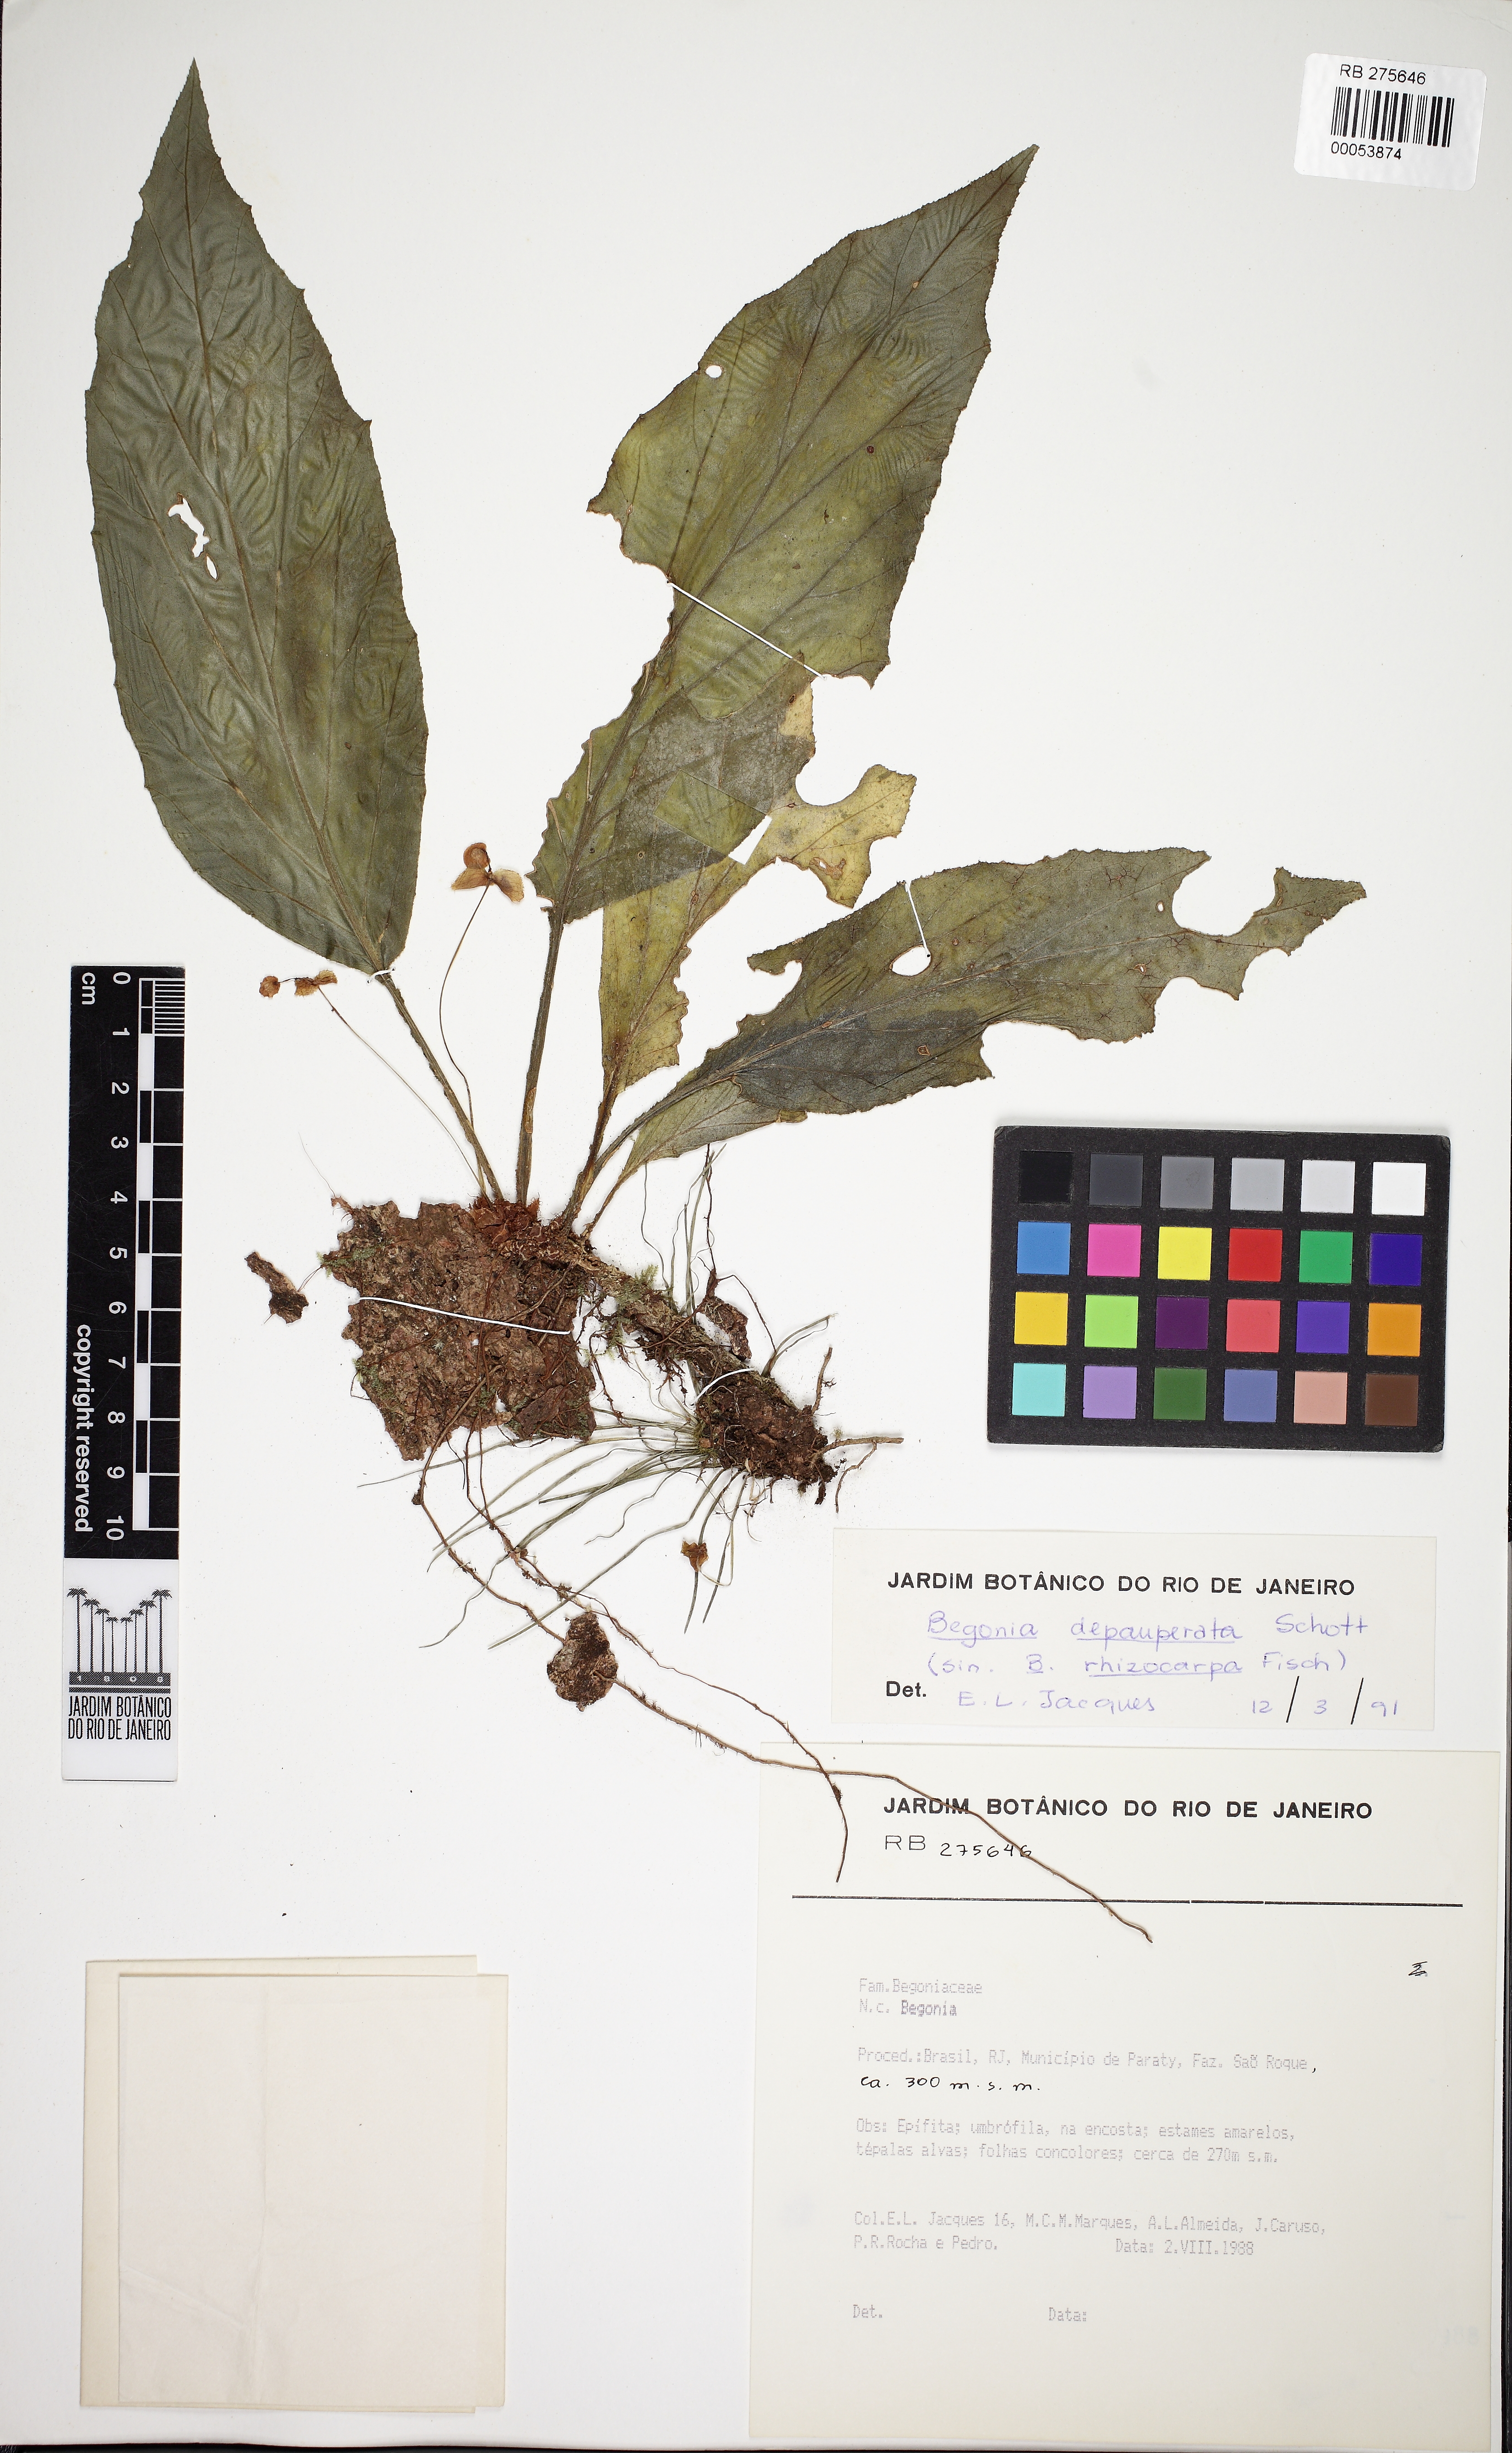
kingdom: Plantae
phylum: Tracheophyta
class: Magnoliopsida
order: Cucurbitales
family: Begoniaceae
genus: Begonia
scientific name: Begonia depauperata
